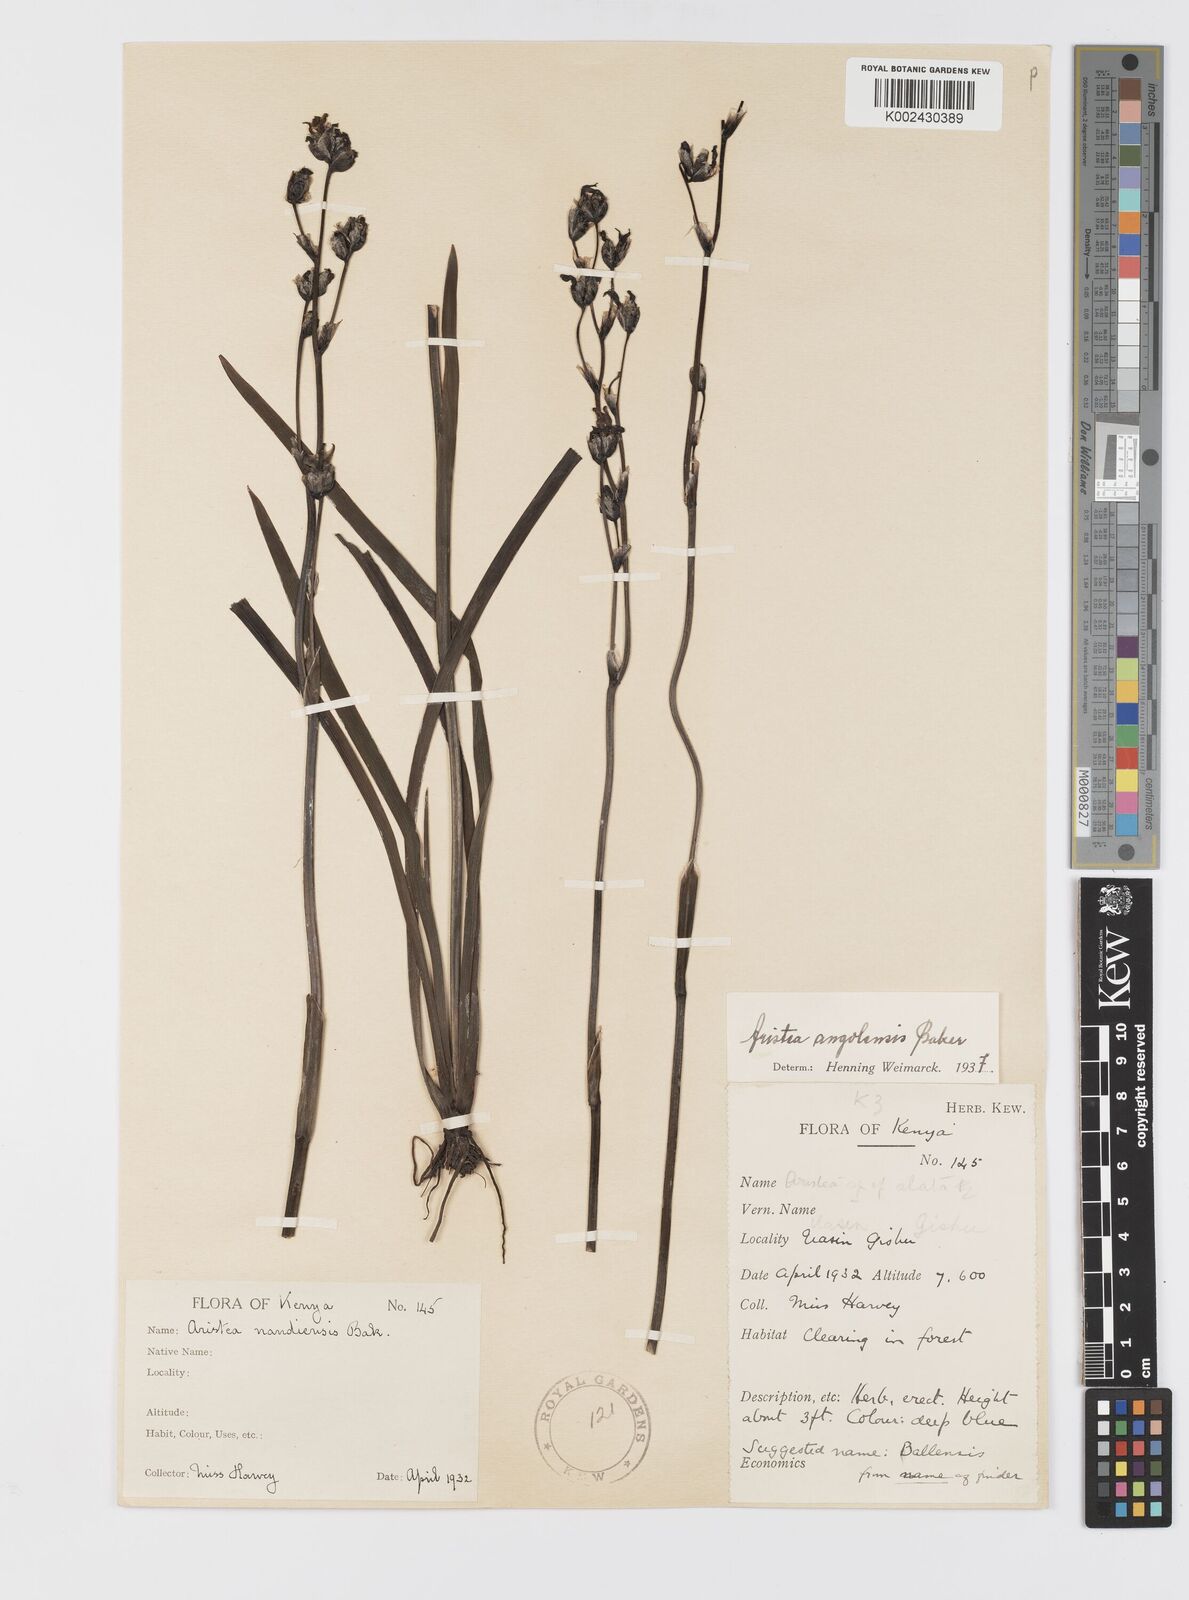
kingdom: Plantae
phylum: Tracheophyta
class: Liliopsida
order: Asparagales
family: Iridaceae
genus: Aristea
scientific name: Aristea angolensis
